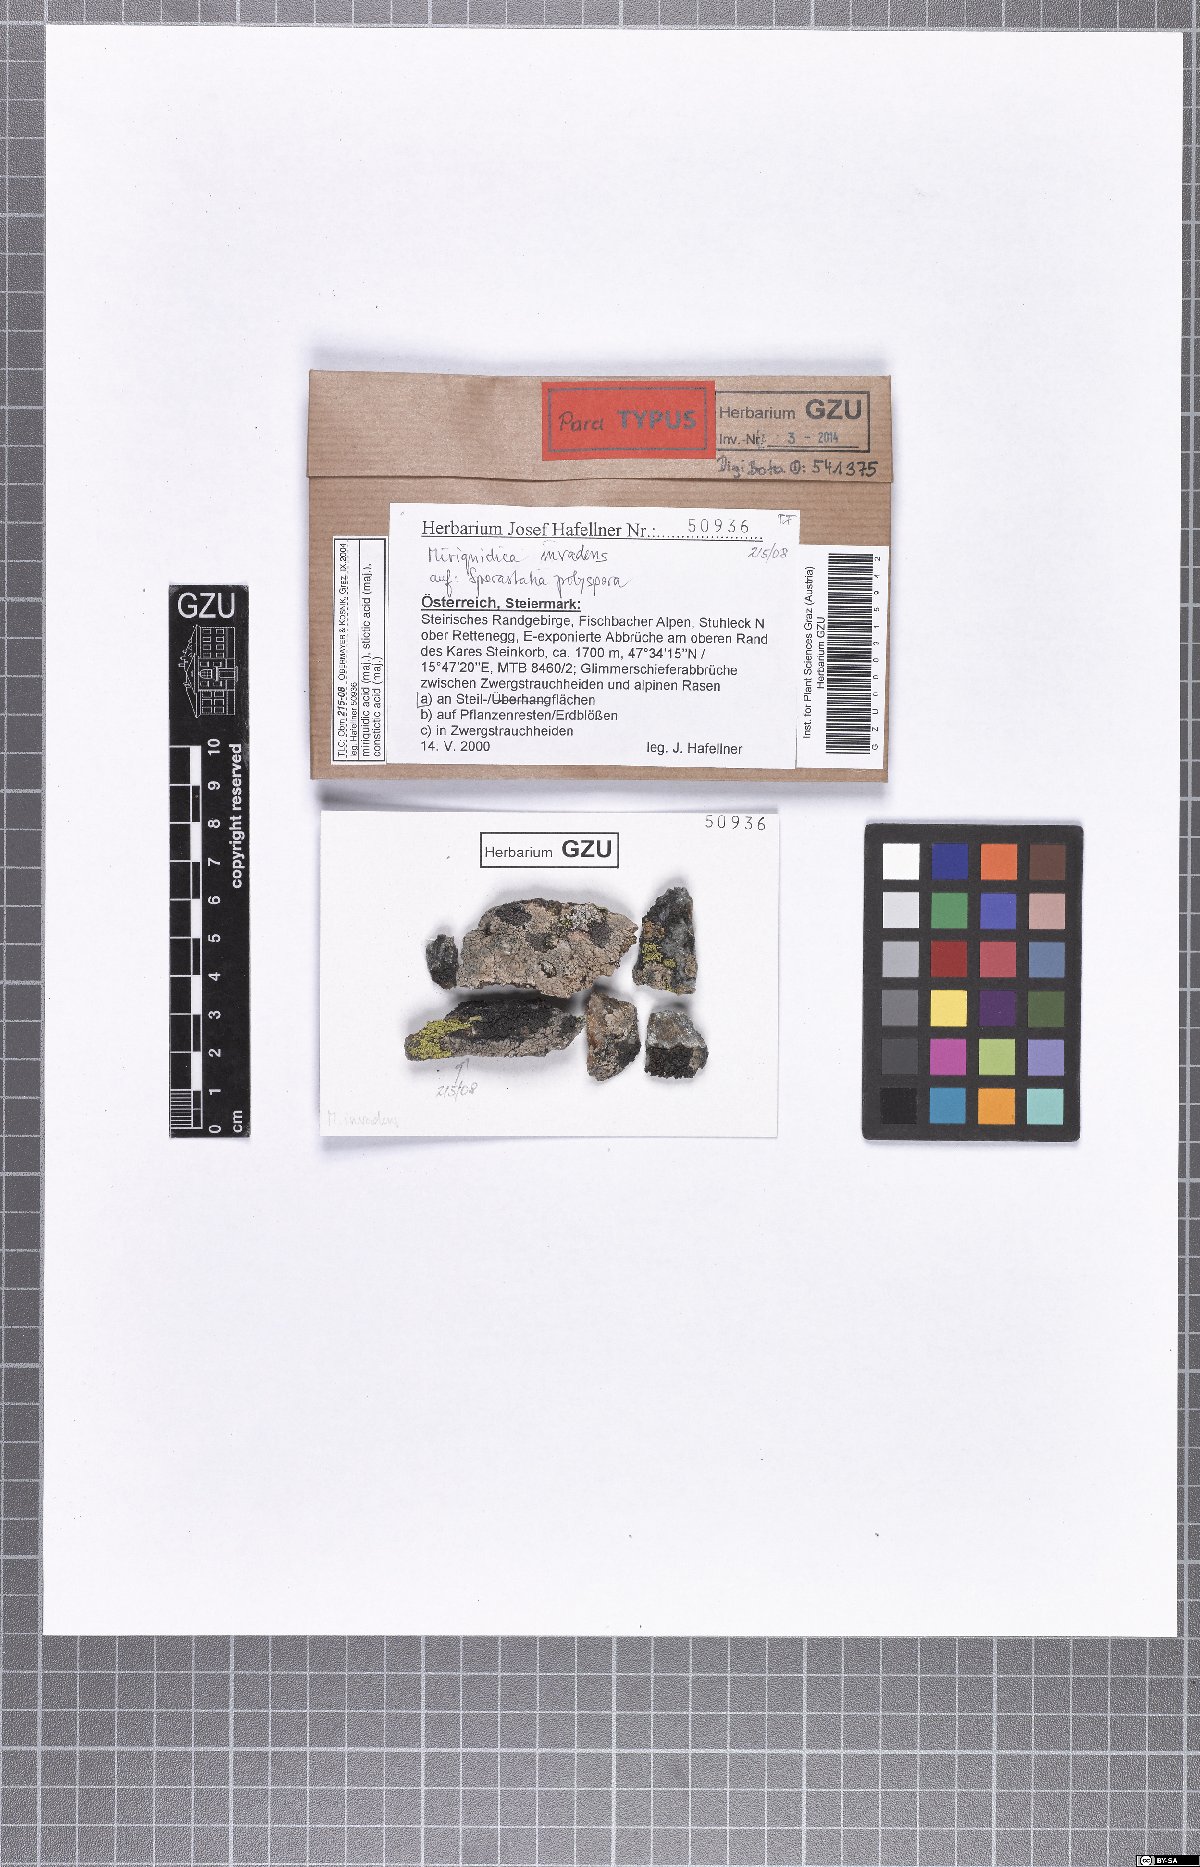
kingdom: Fungi
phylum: Ascomycota
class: Lecanoromycetes
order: Lecanorales
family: Lecanoraceae
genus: Miriquidica
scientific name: Miriquidica invadens
